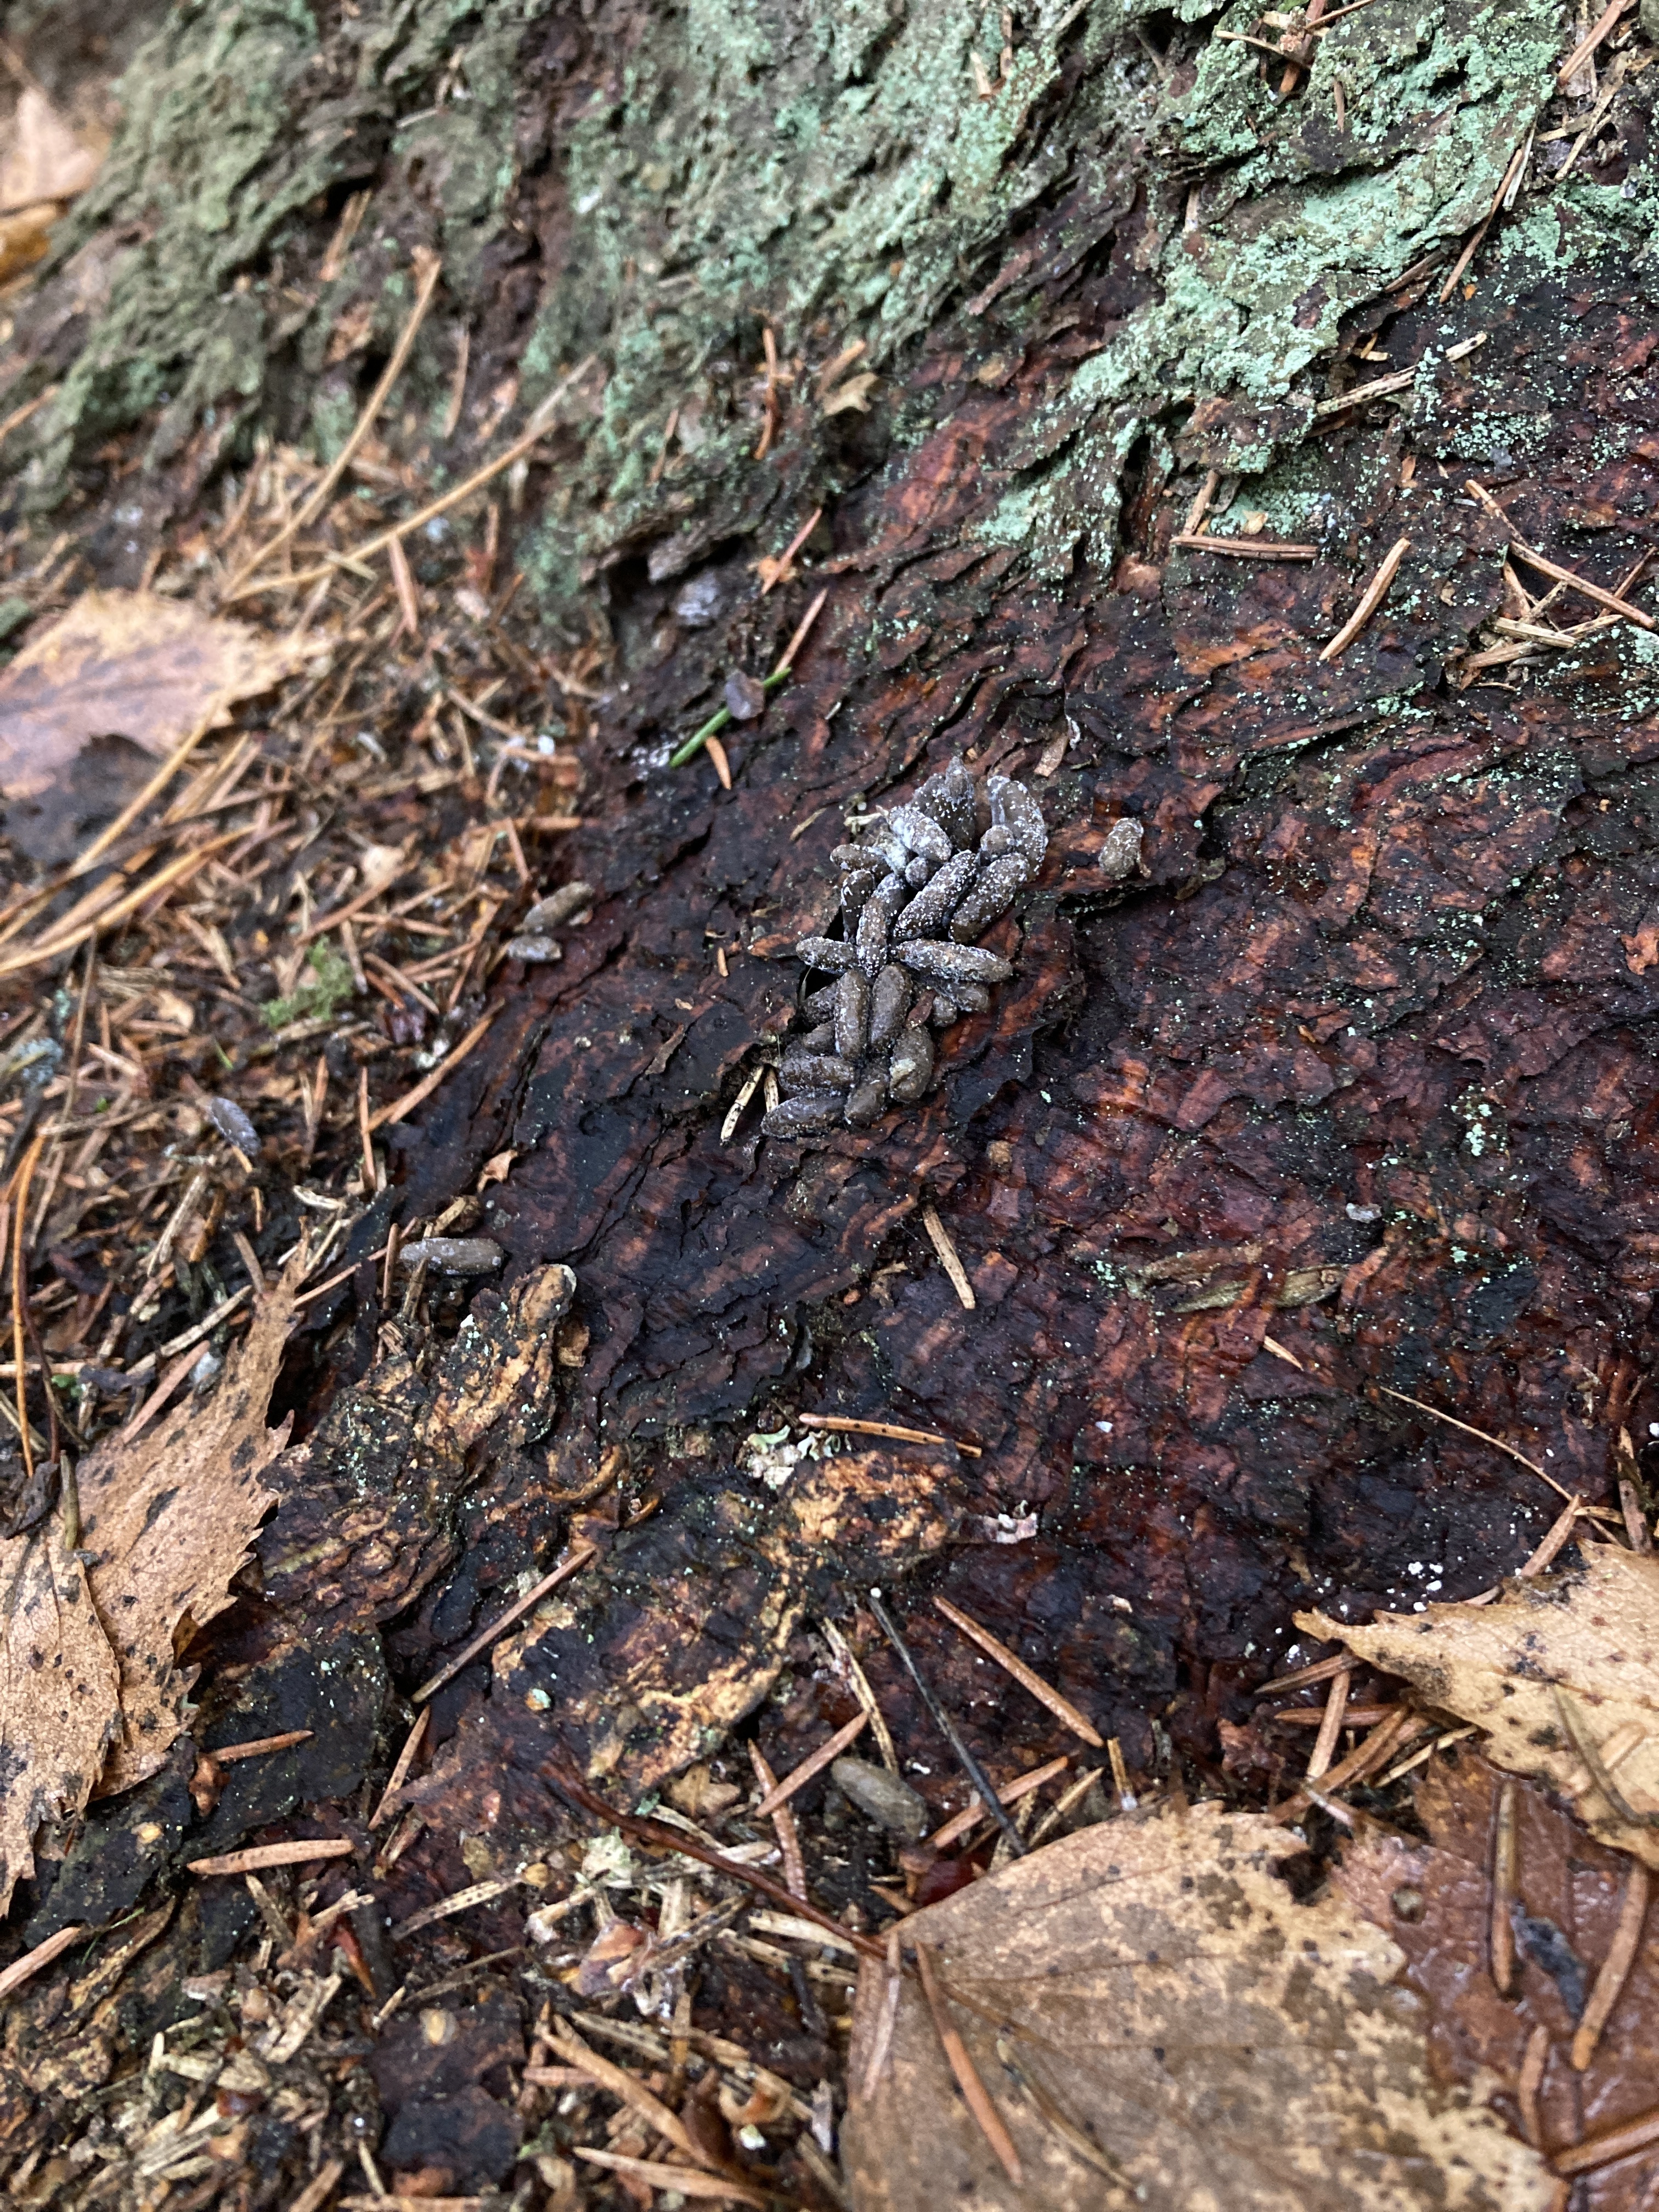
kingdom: Animalia
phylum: Chordata
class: Mammalia
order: Rodentia
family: Sciuridae
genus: Pteromys
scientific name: Pteromys volans
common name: Siberian flying squirrel
